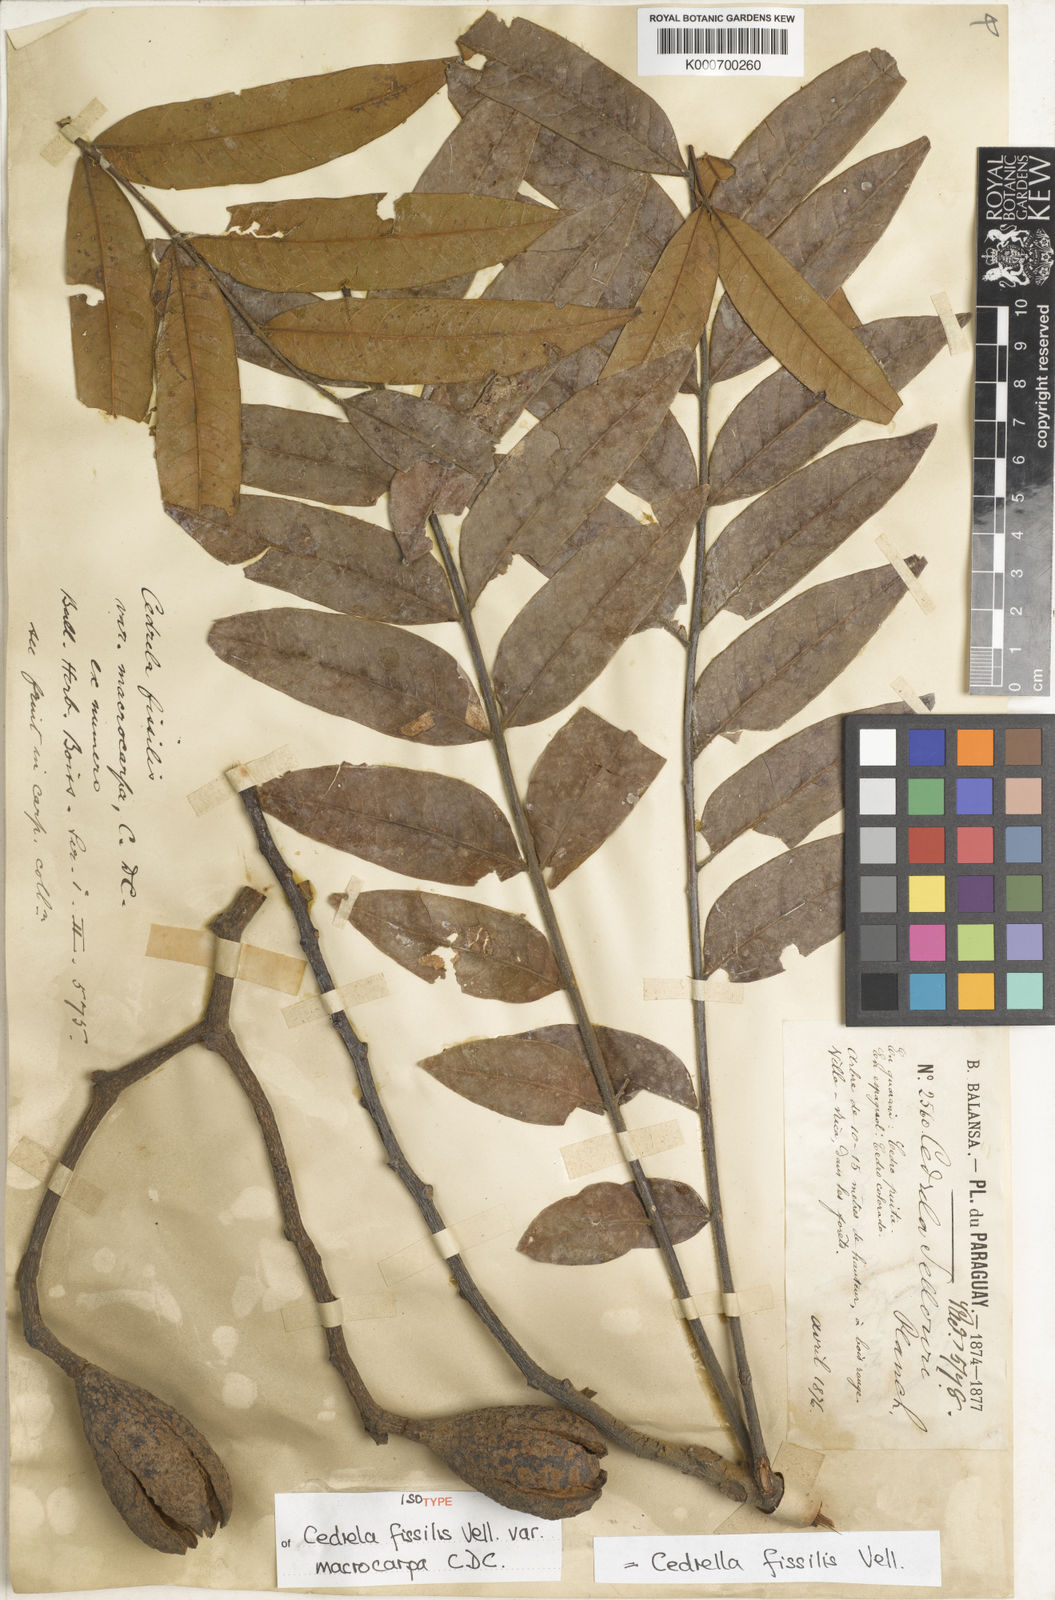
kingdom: Plantae
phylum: Tracheophyta
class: Magnoliopsida
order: Sapindales
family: Meliaceae
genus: Cedrela
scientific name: Cedrela fissilis
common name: Argentine cedar
